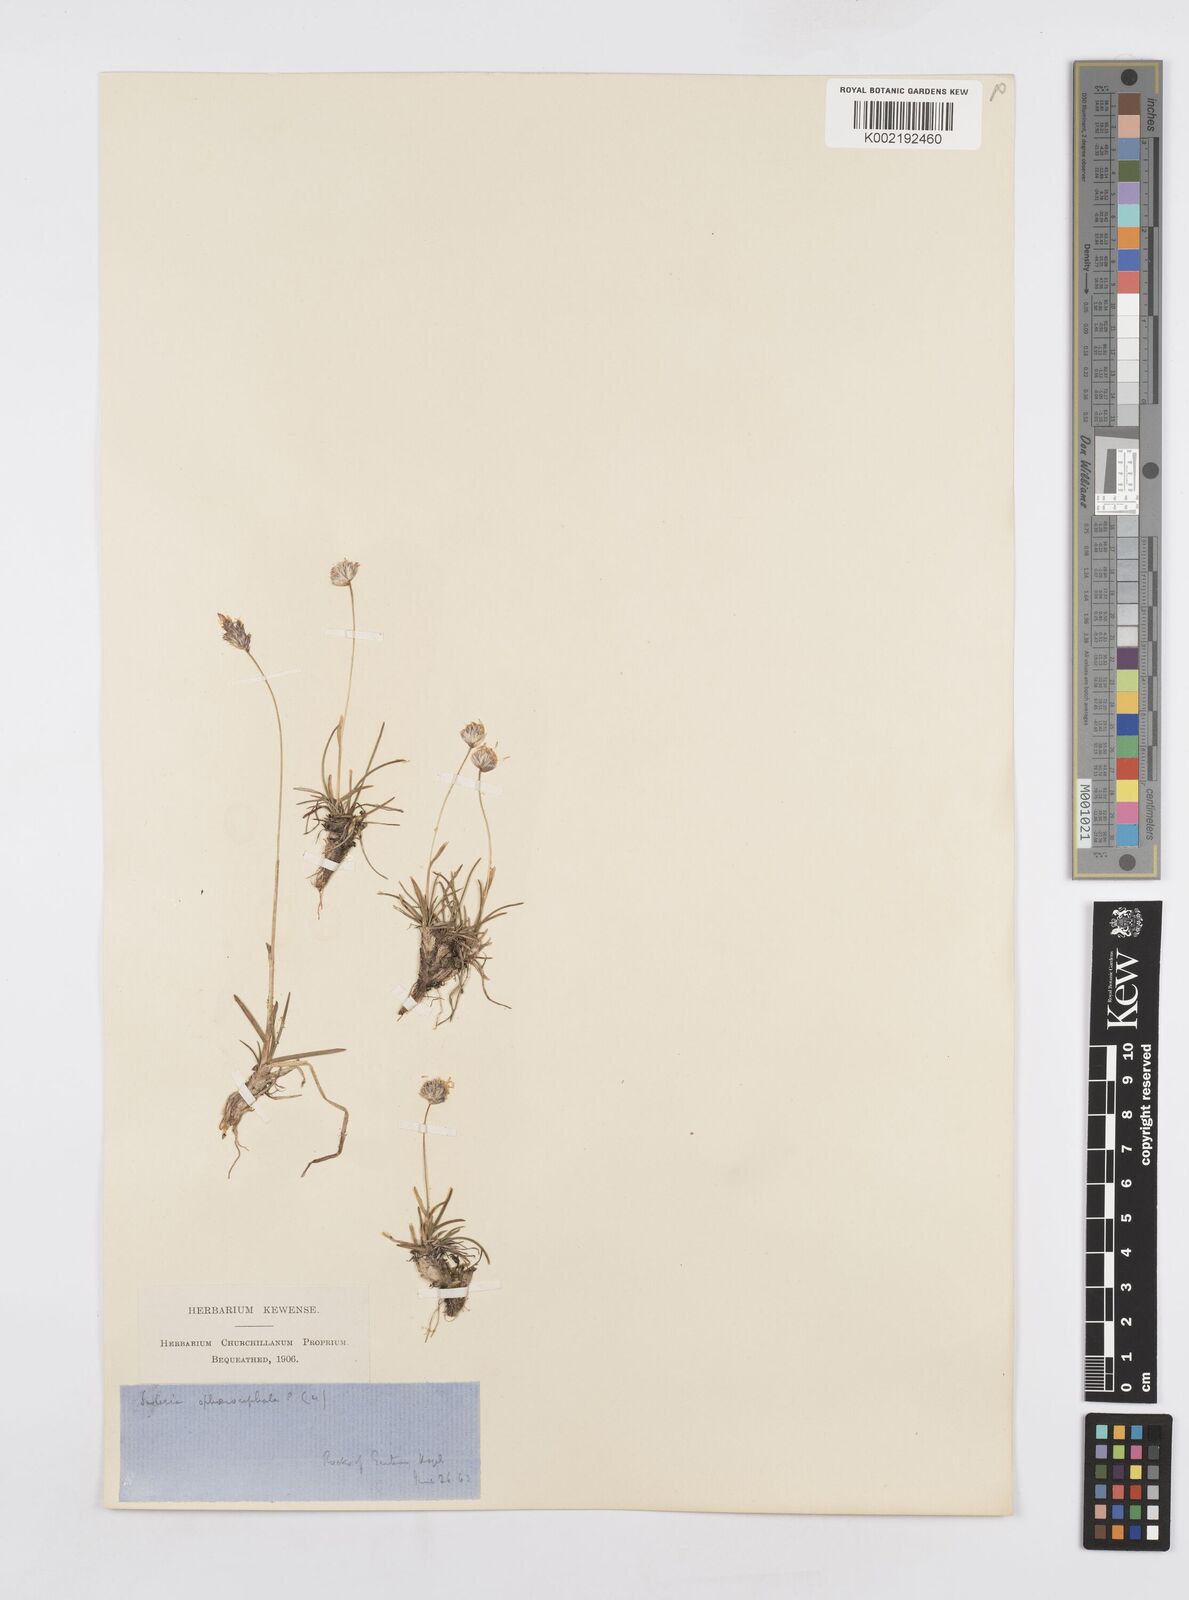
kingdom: Plantae
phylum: Tracheophyta
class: Liliopsida
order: Poales
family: Poaceae
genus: Sesleriella
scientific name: Sesleriella sphaerocephala
